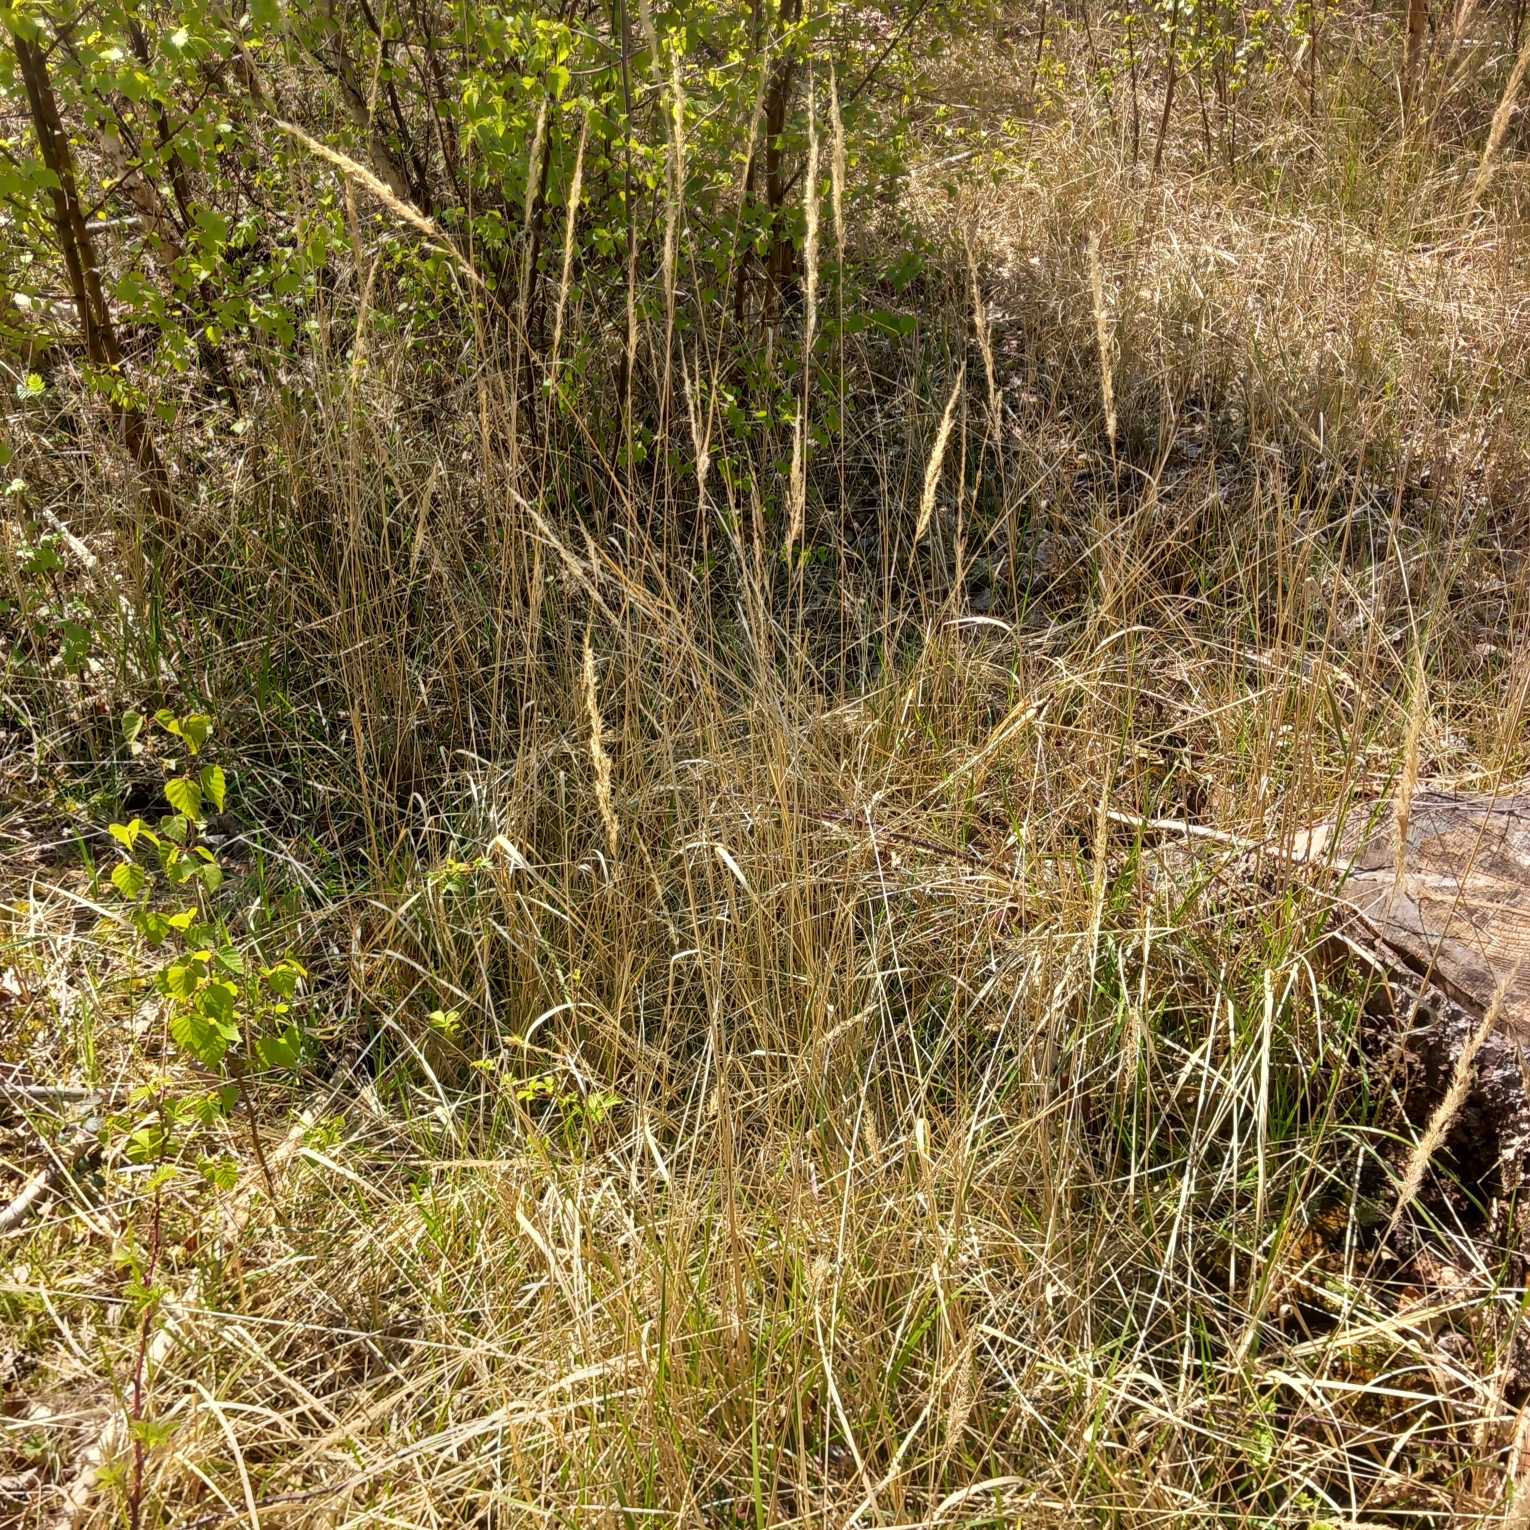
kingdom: Plantae
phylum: Tracheophyta
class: Liliopsida
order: Poales
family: Poaceae
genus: Calamagrostis
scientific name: Calamagrostis epigejos
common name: Bjerg-rørhvene
